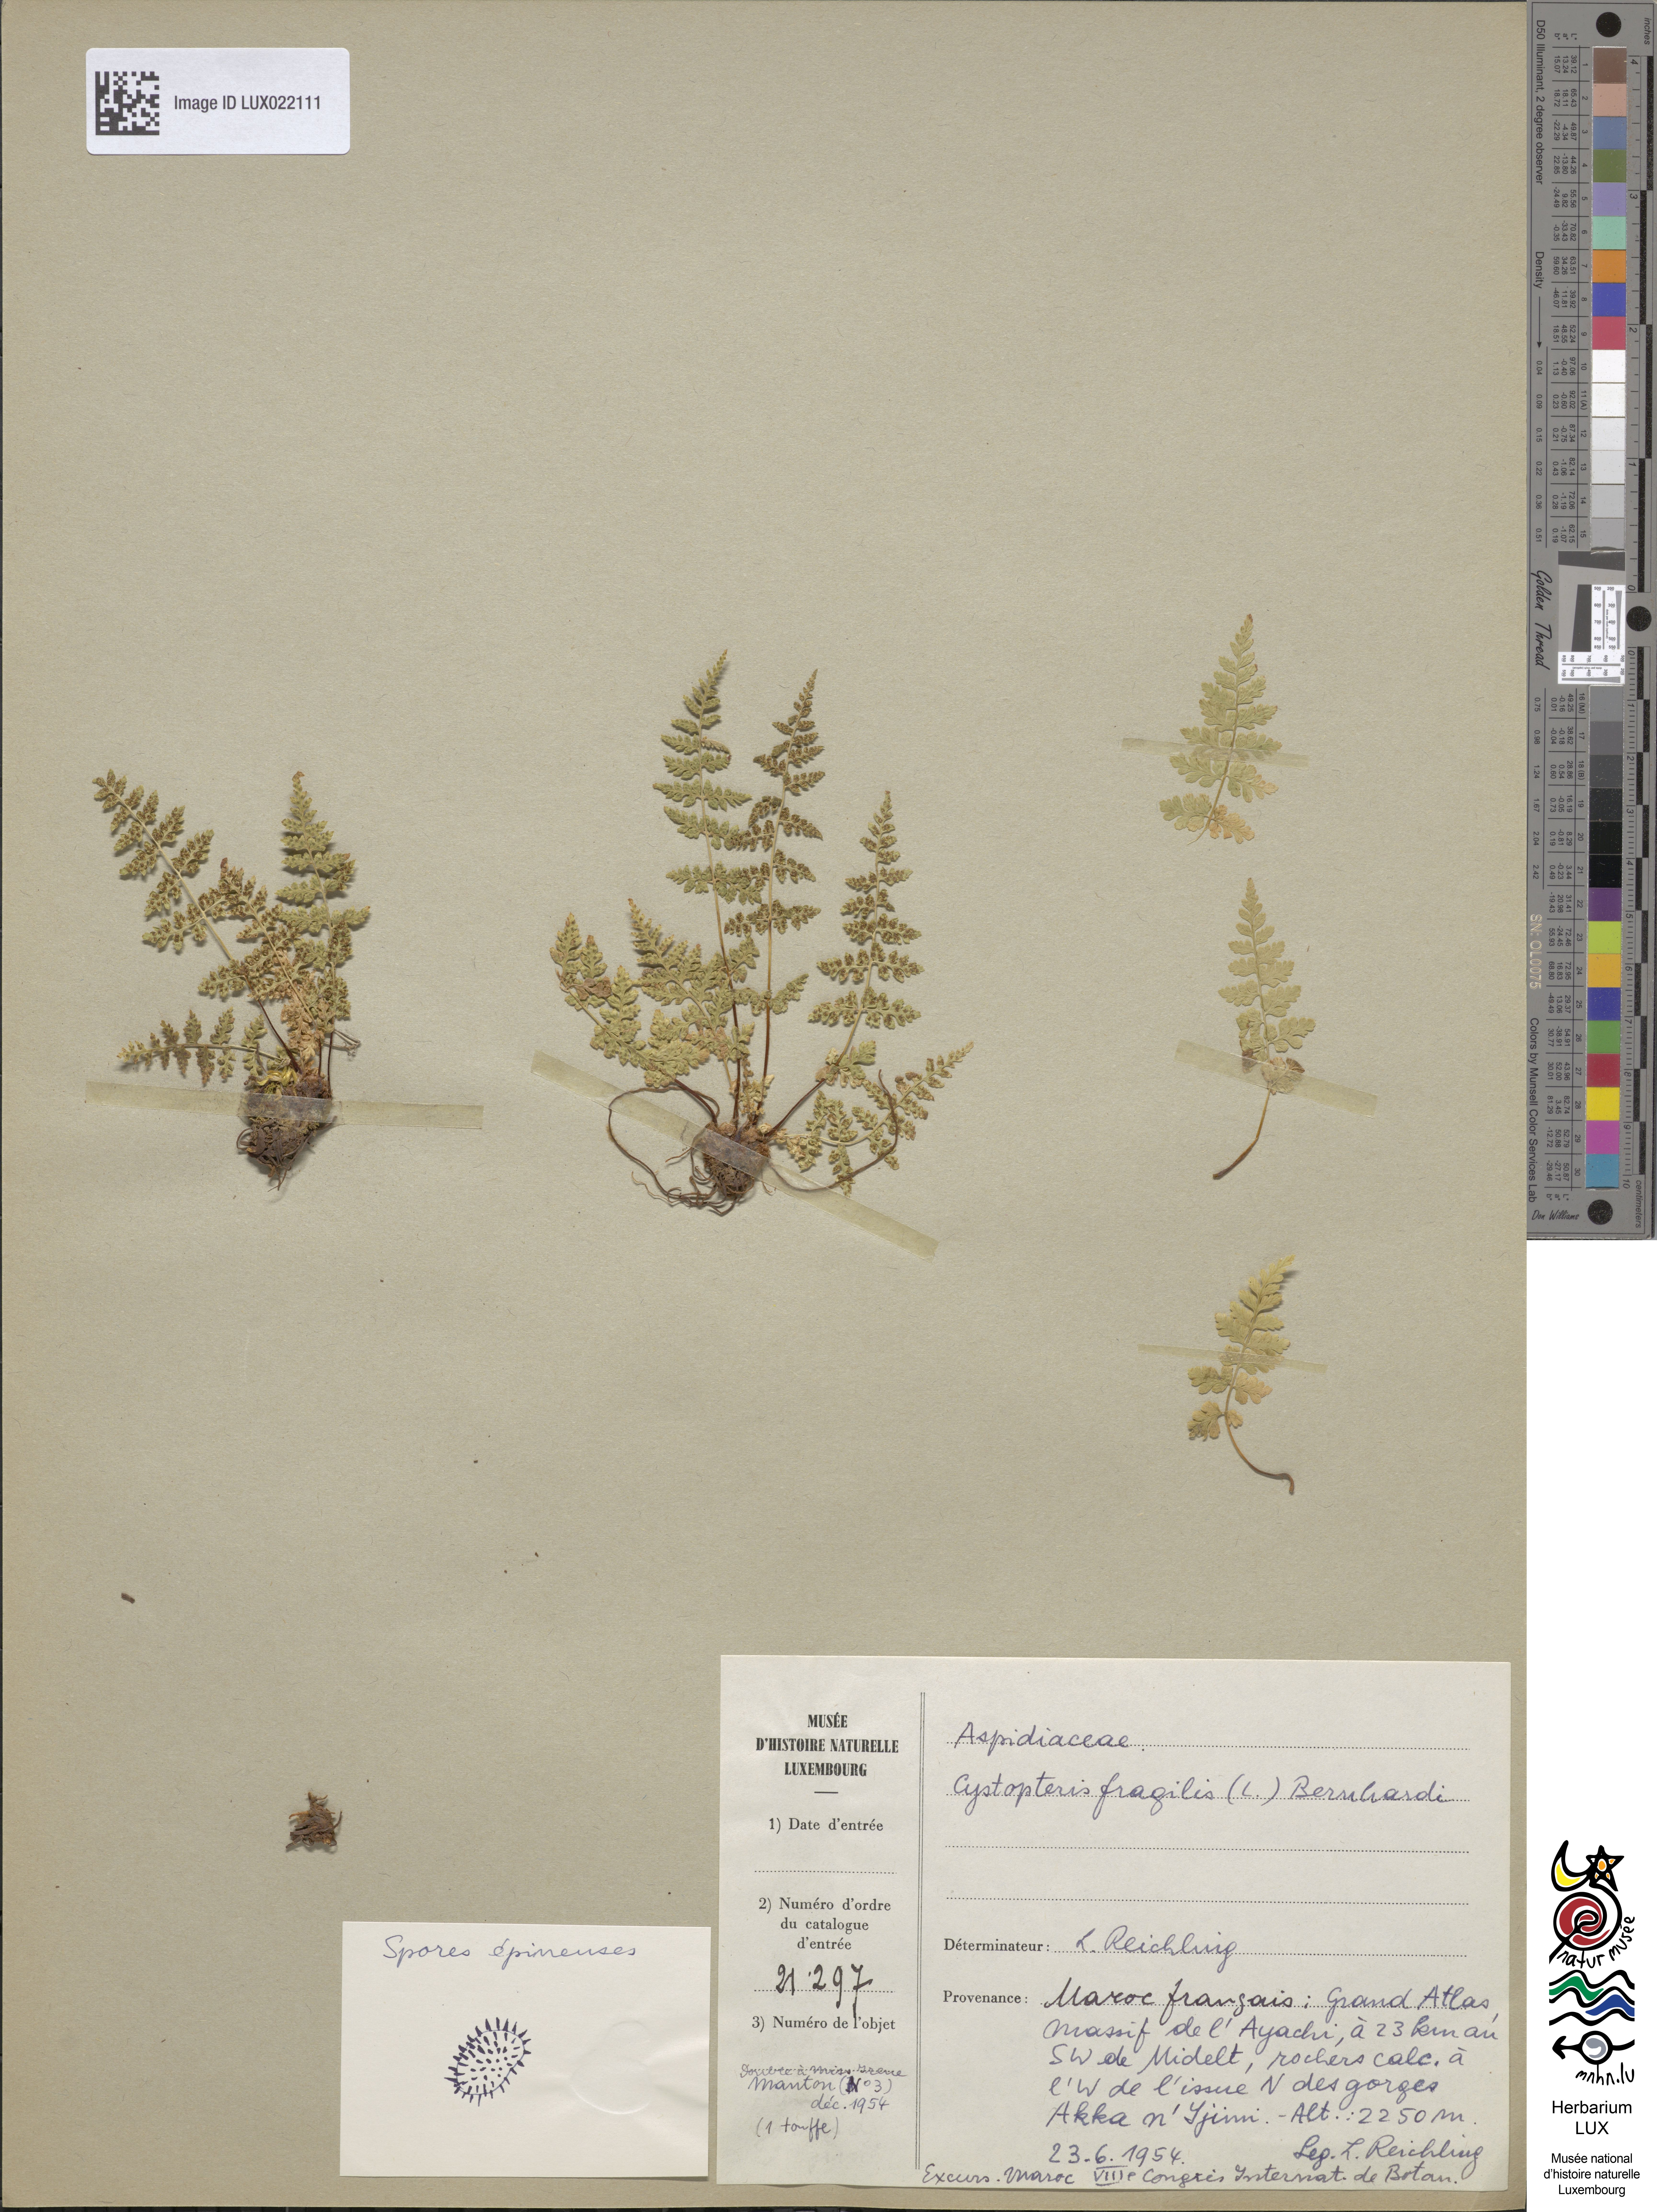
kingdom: Plantae
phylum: Tracheophyta
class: Polypodiopsida
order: Polypodiales
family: Cystopteridaceae
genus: Cystopteris
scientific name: Cystopteris fragilis
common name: Brittle bladder fern
